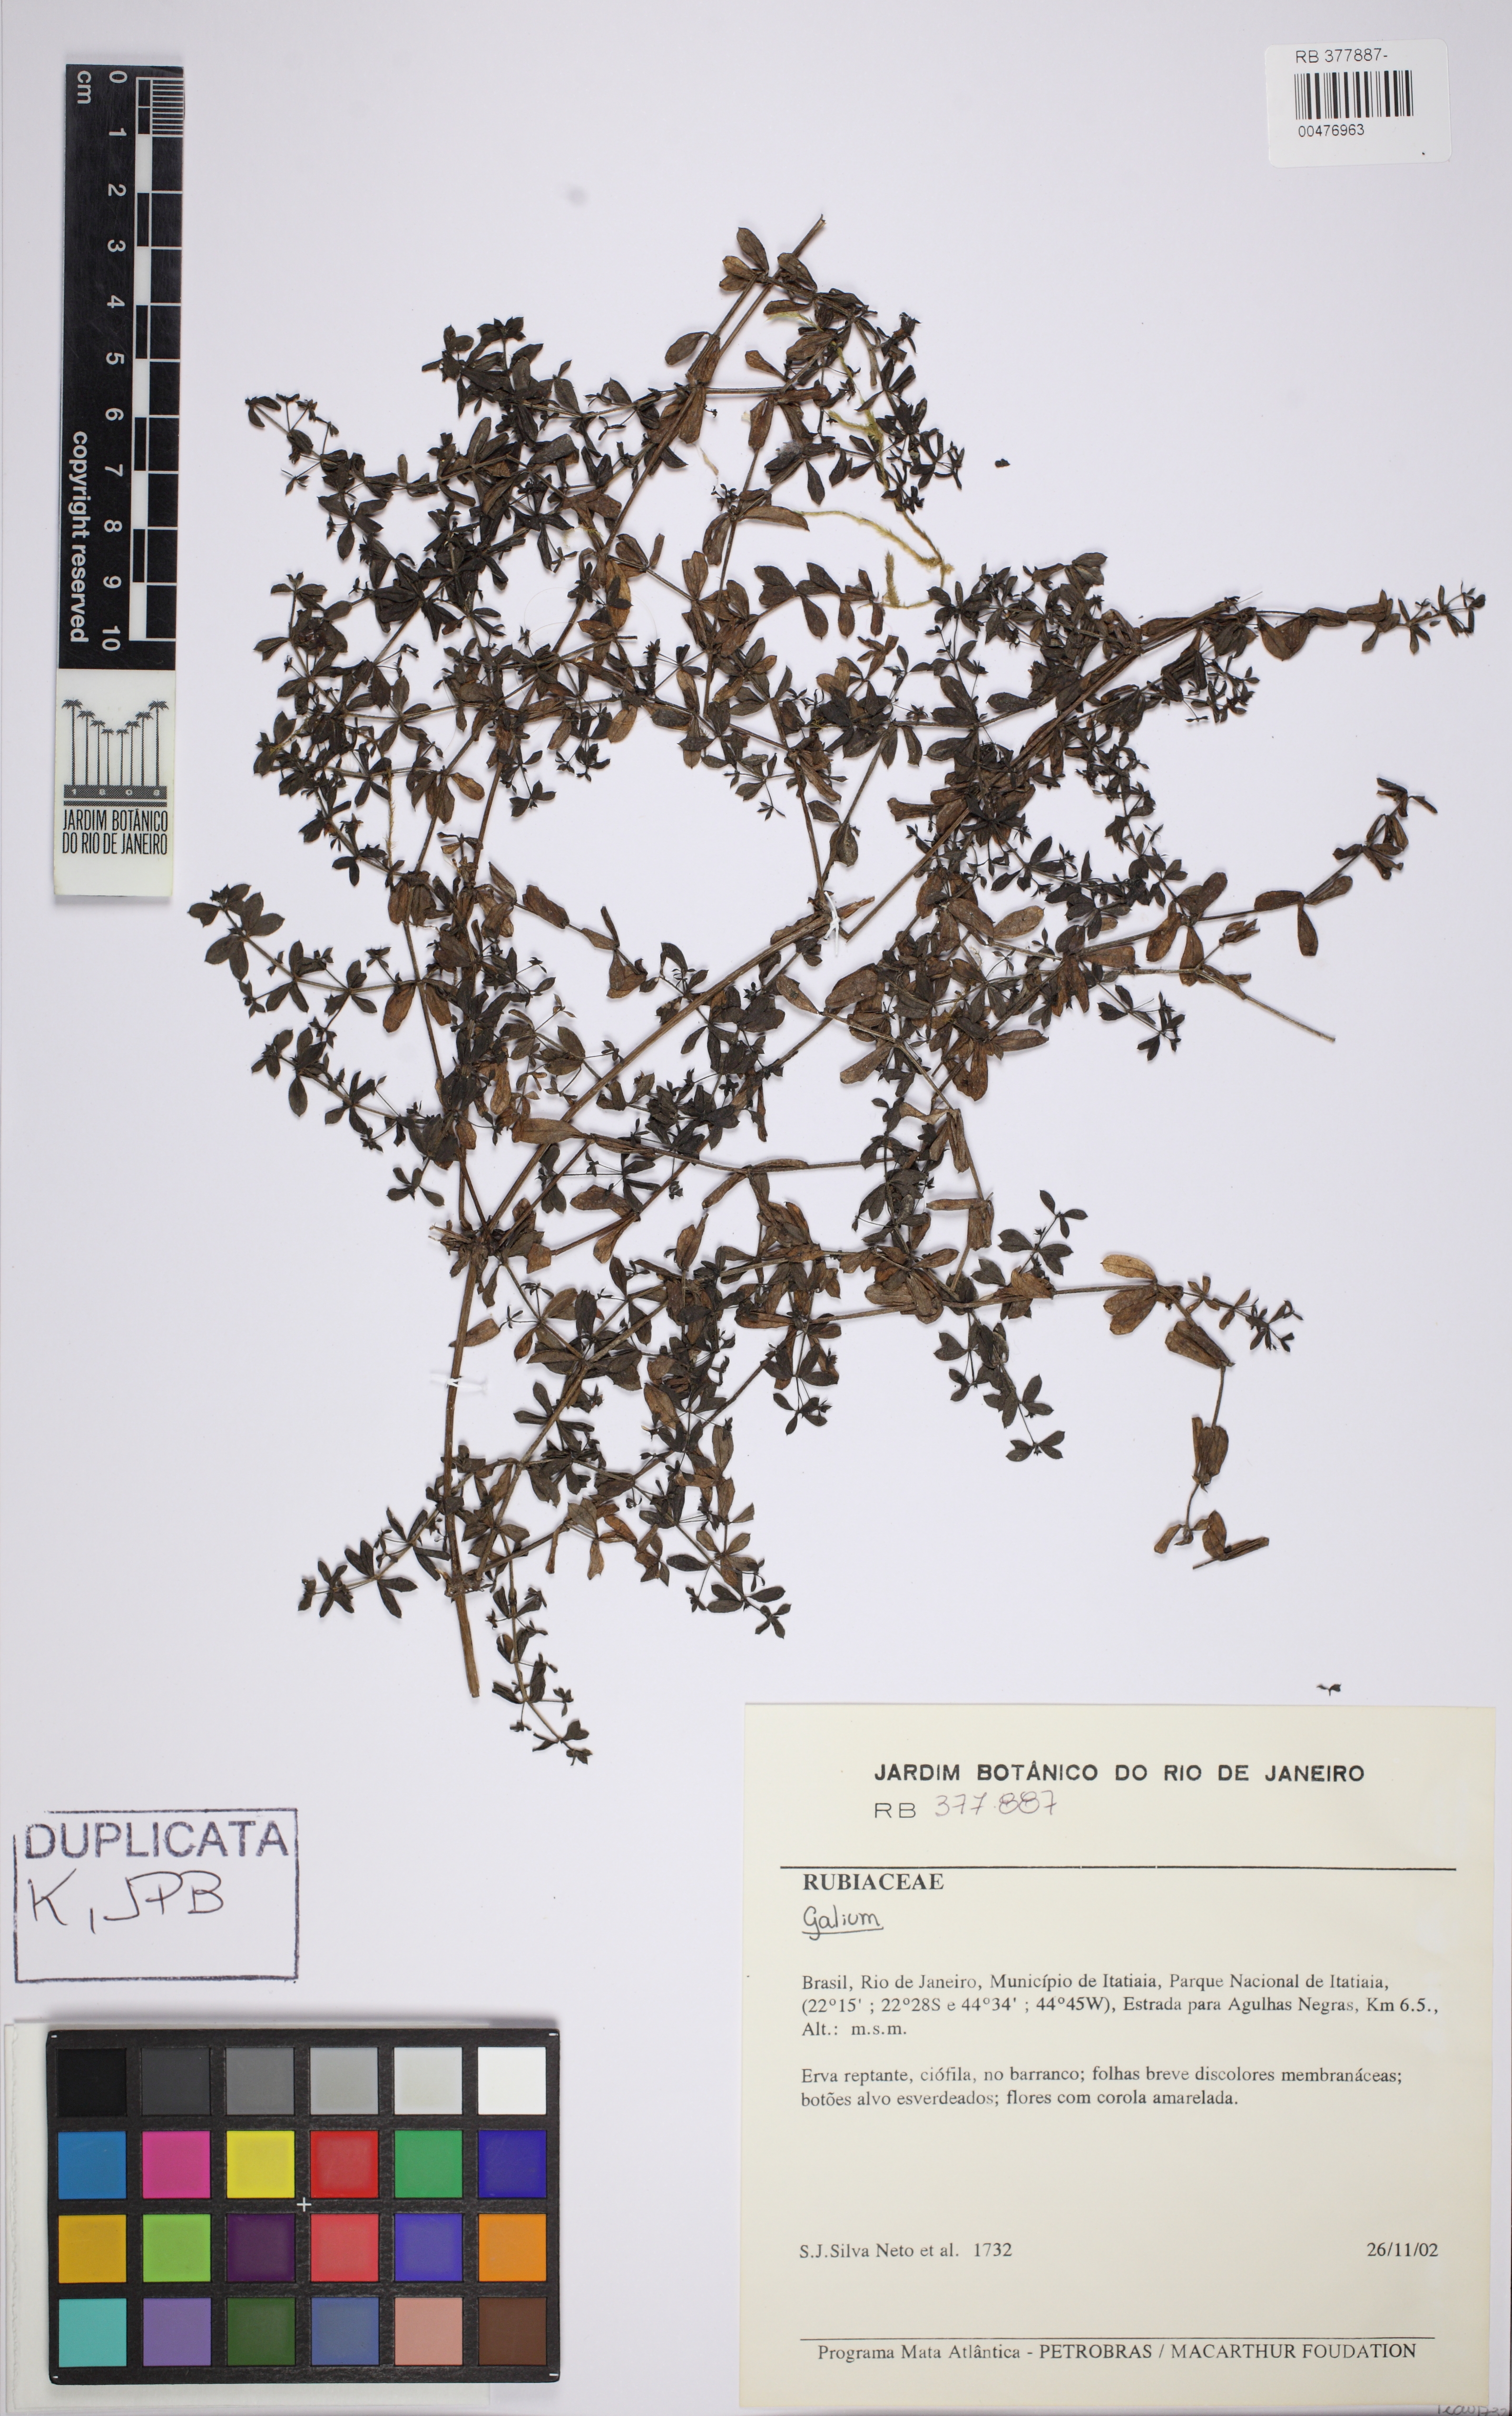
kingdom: Plantae
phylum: Tracheophyta
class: Magnoliopsida
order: Gentianales
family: Rubiaceae
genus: Galium
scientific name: Galium hypocarpium
